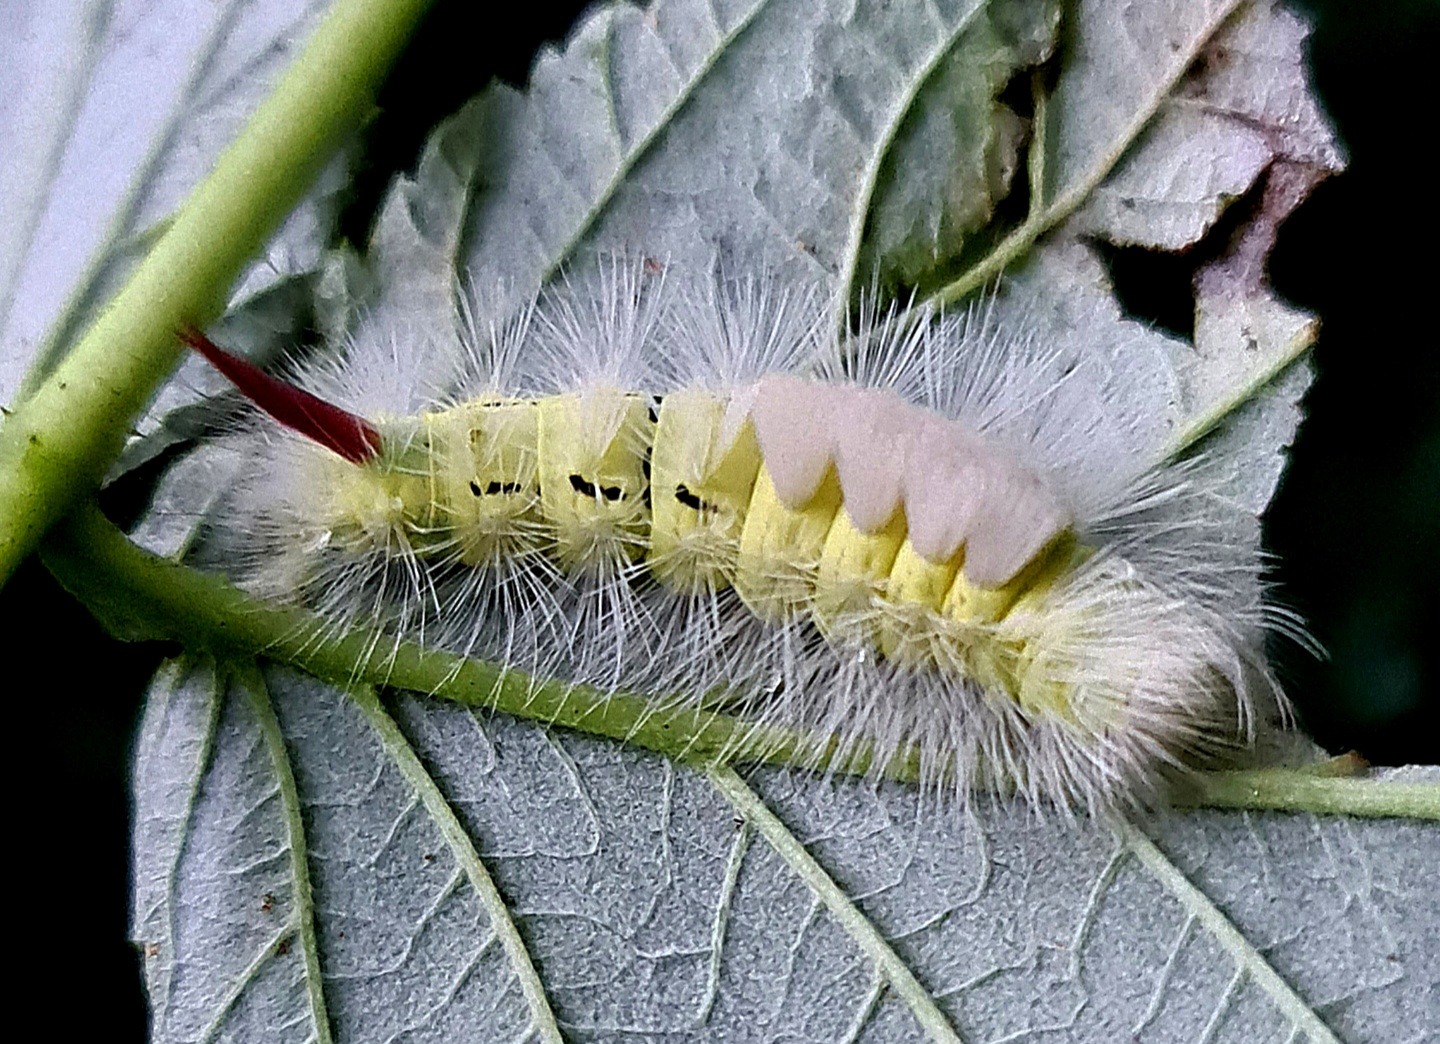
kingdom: Animalia
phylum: Arthropoda
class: Insecta
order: Lepidoptera
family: Erebidae
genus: Calliteara
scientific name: Calliteara pudibunda
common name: Bøgenonne
